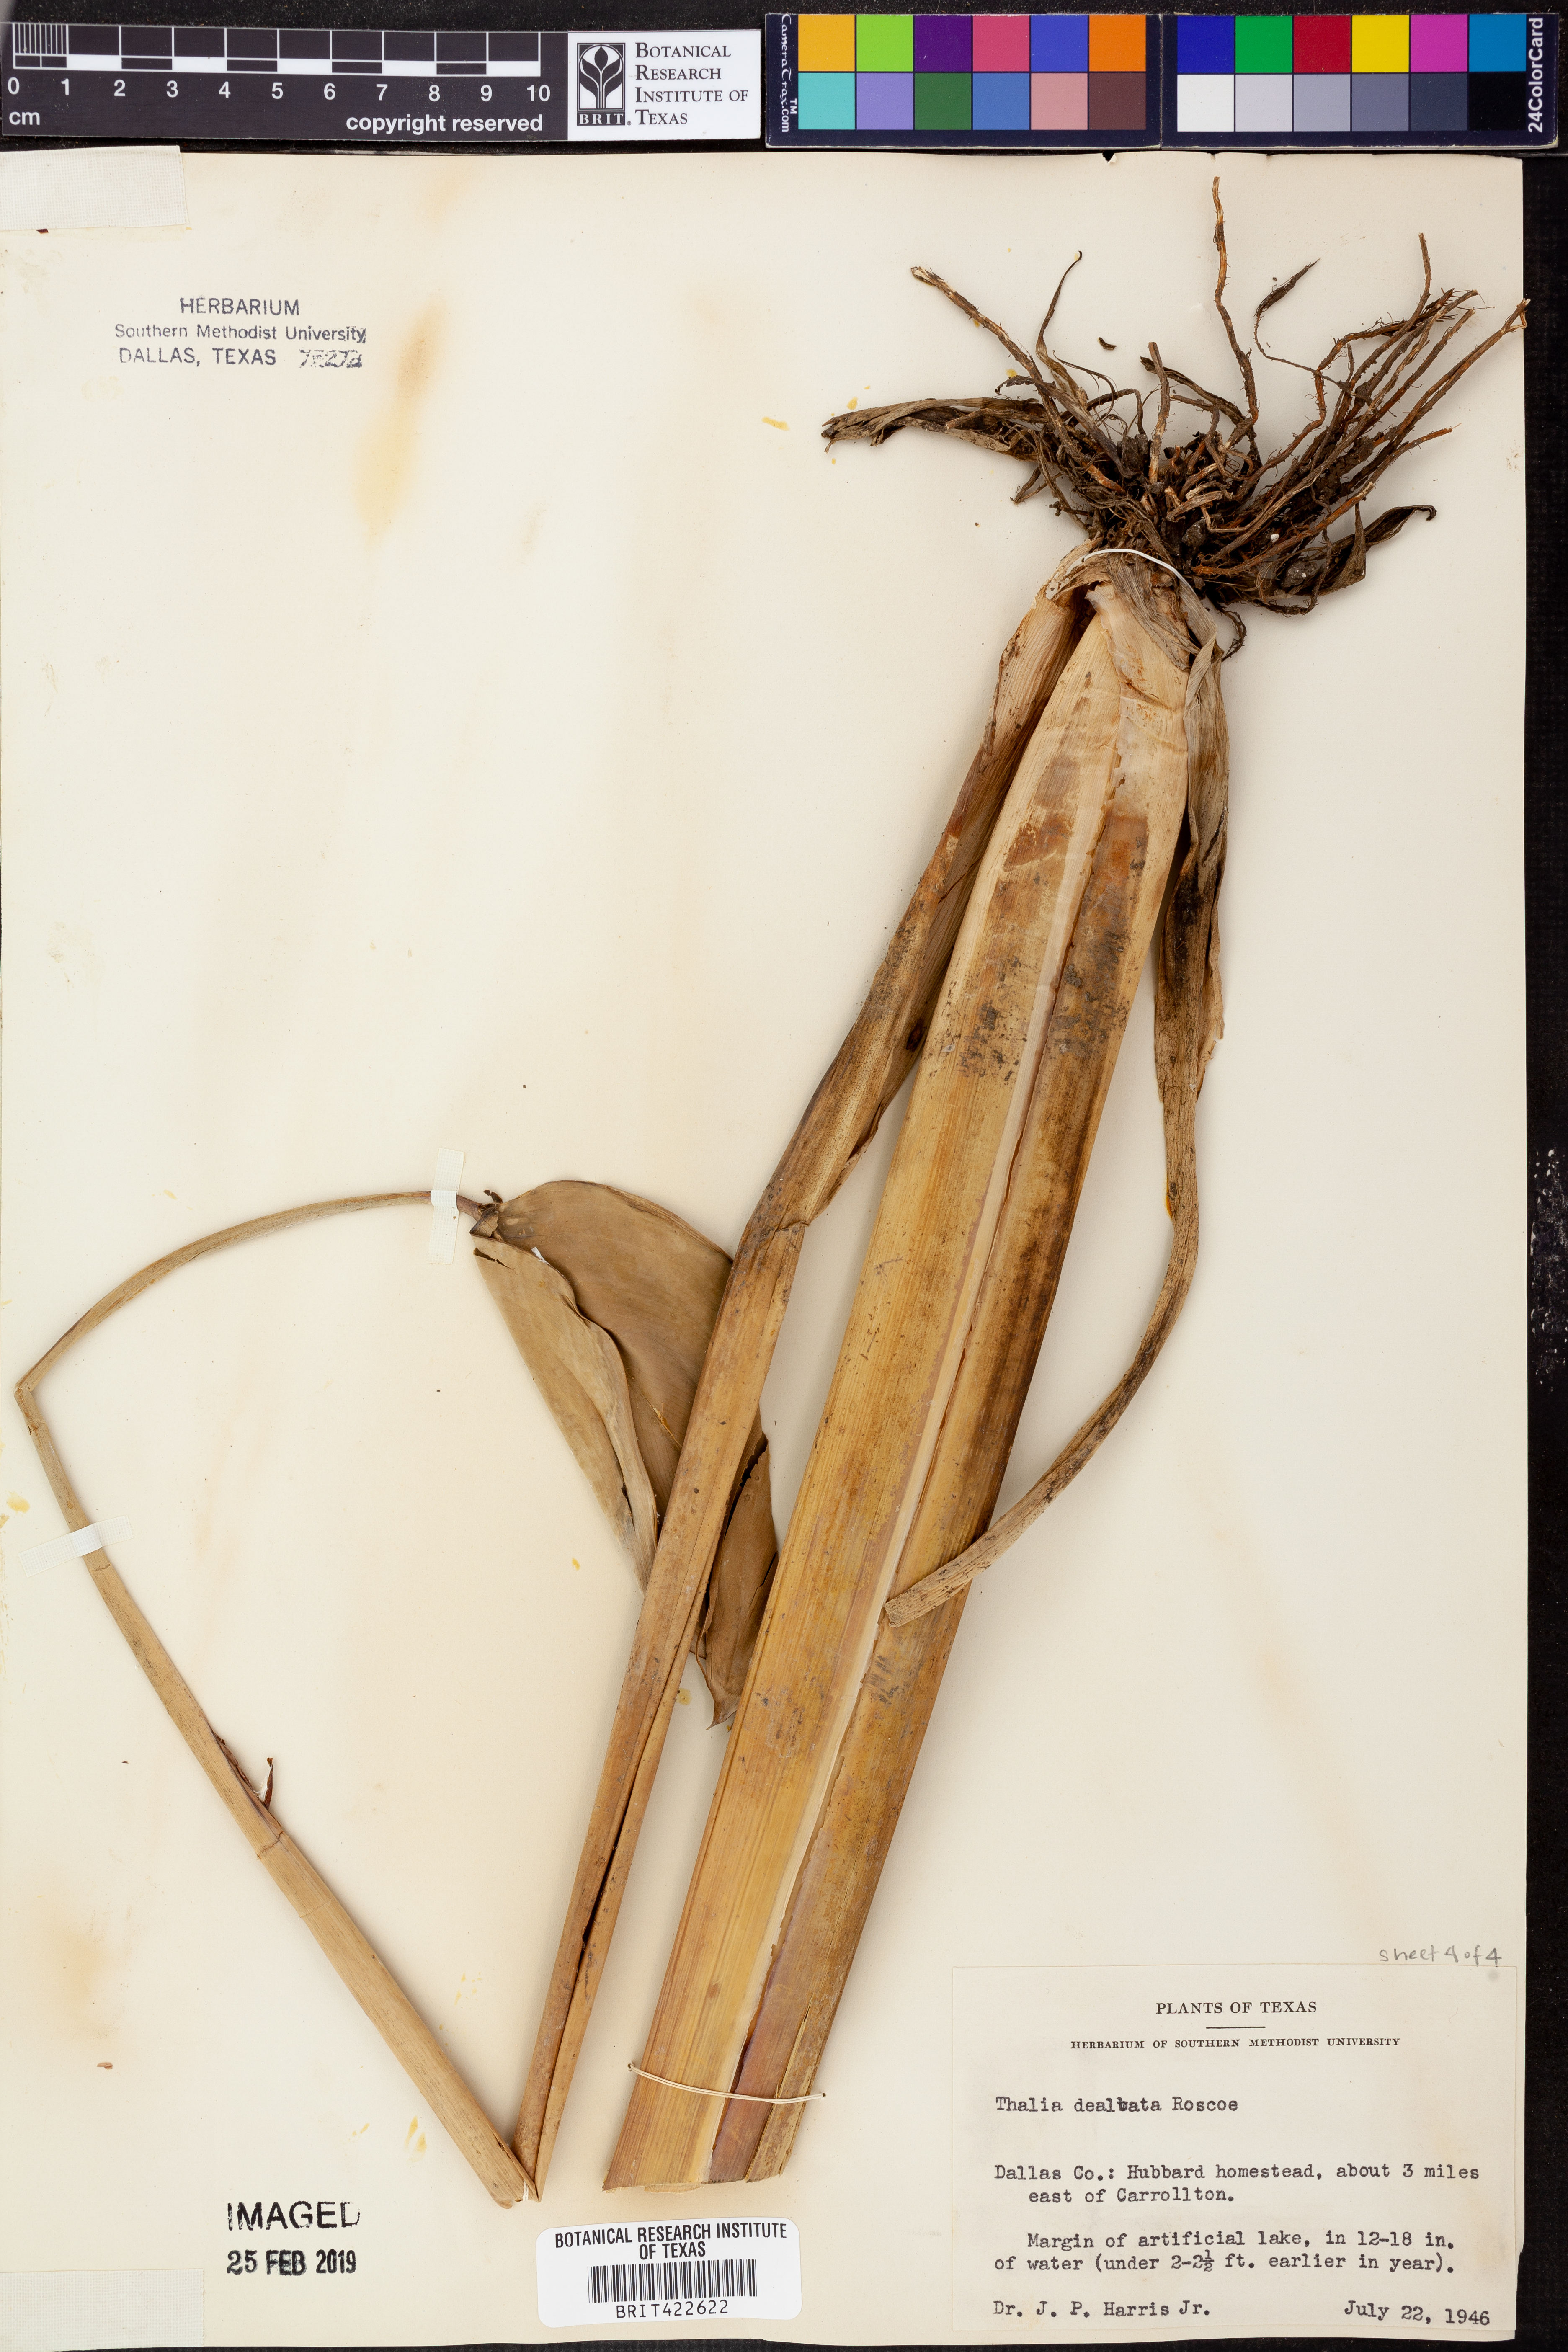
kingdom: Plantae
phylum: Tracheophyta
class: Liliopsida
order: Zingiberales
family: Marantaceae
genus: Thalia
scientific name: Thalia dealbata
